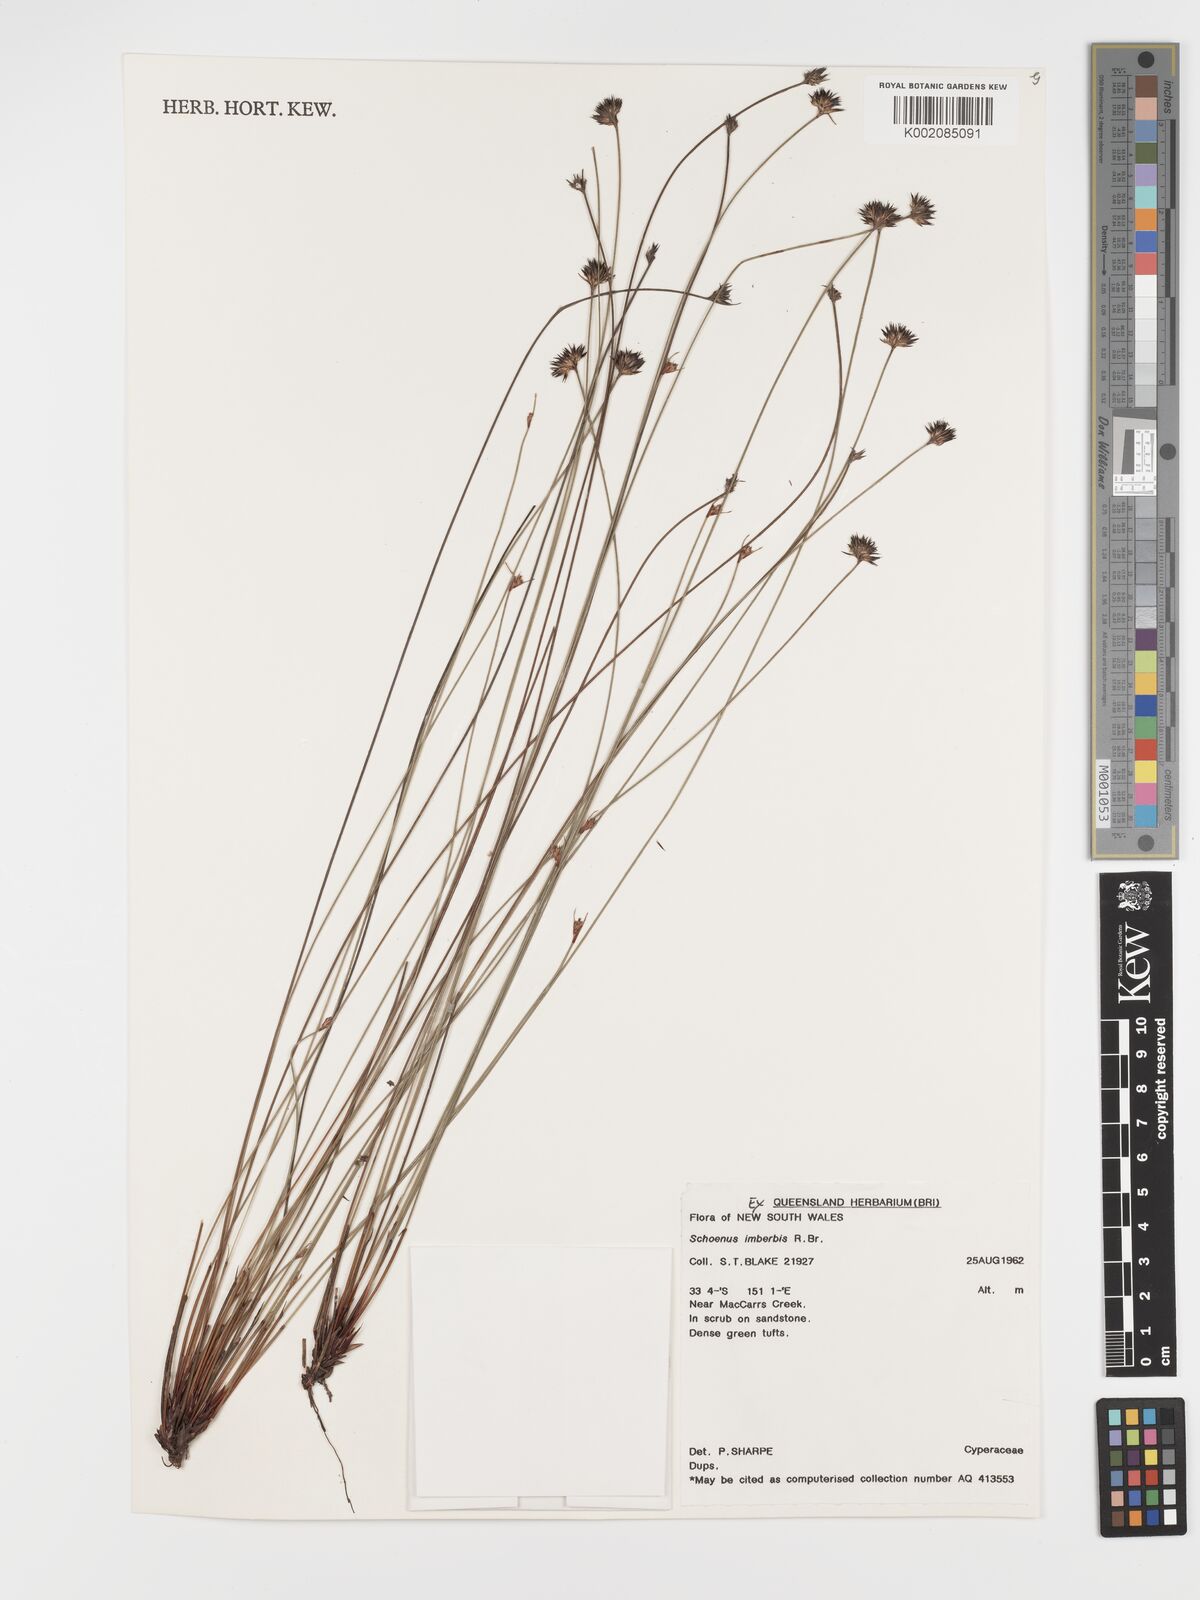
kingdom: Plantae
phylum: Tracheophyta
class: Liliopsida
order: Poales
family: Cyperaceae
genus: Schoenus
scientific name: Schoenus imberbis
